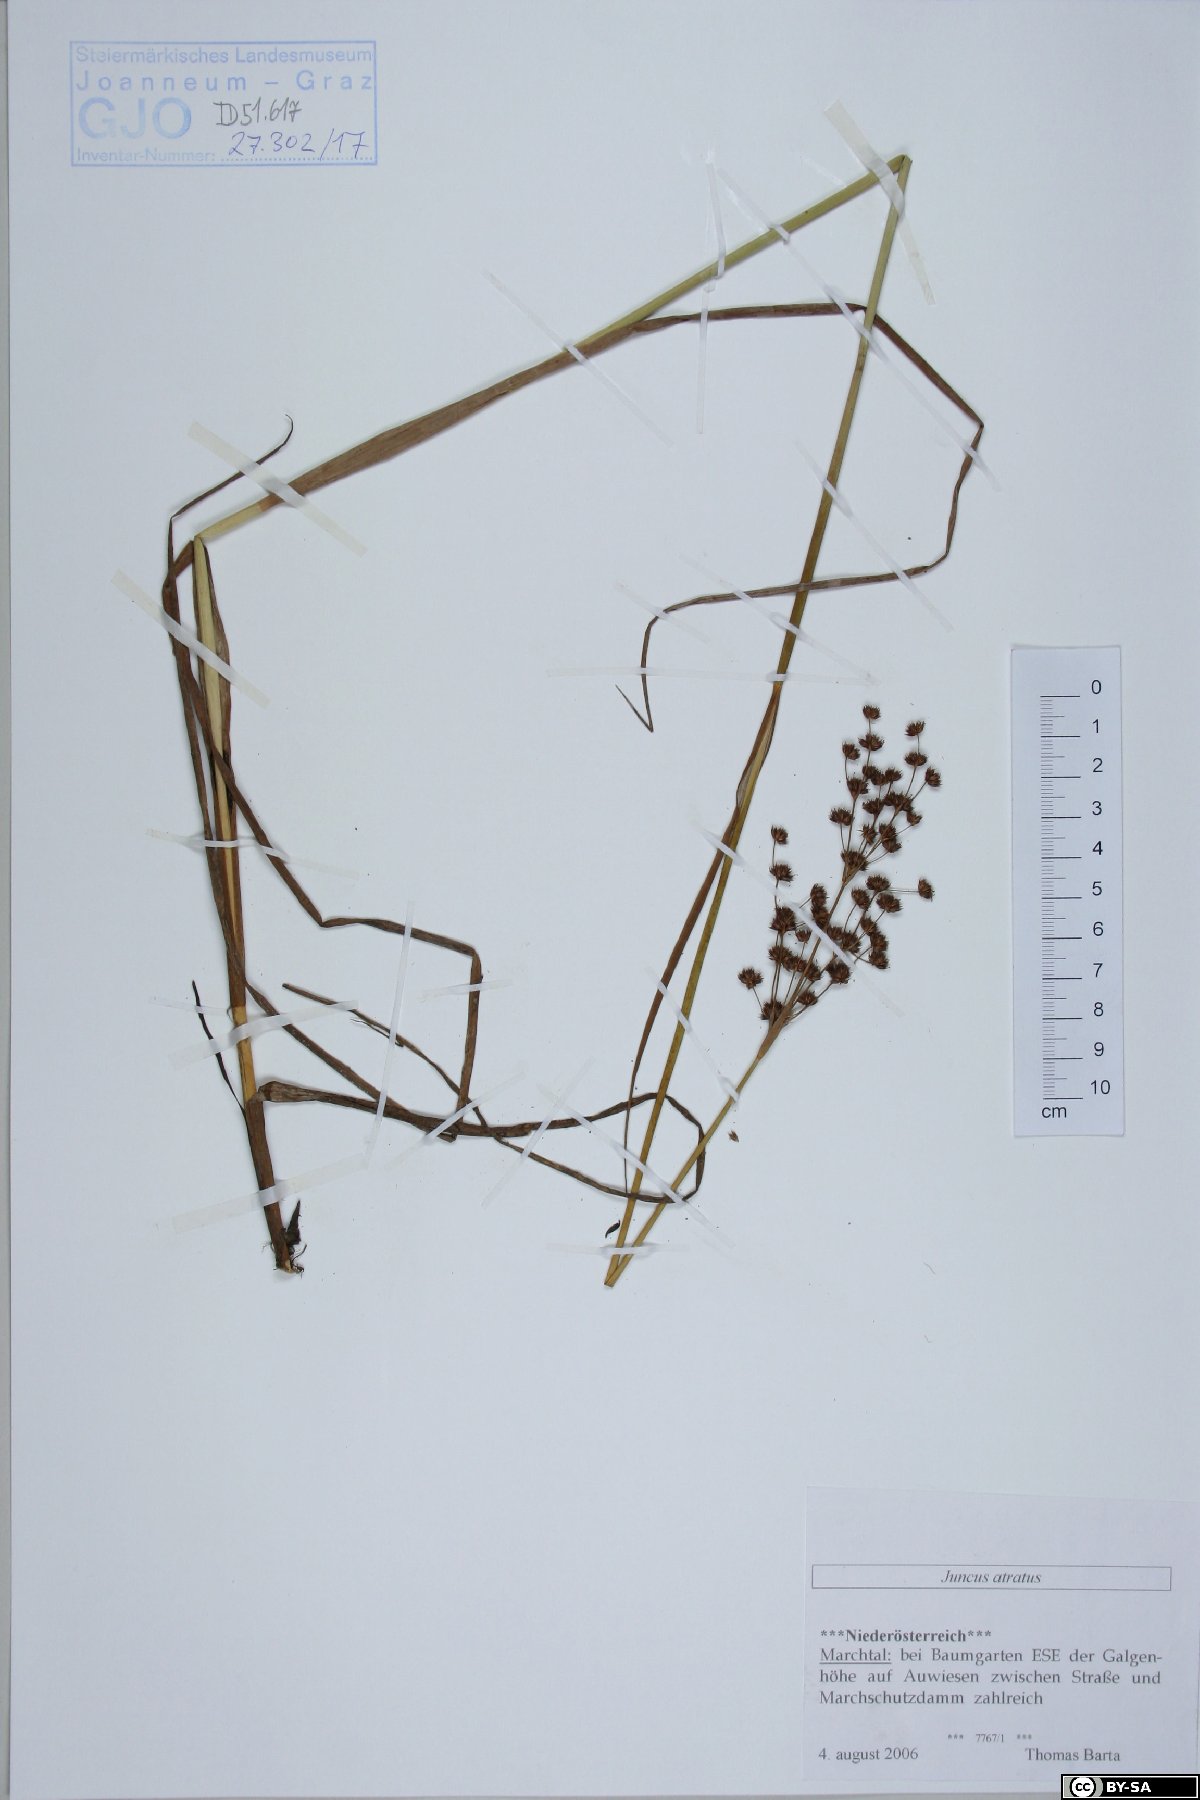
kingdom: Plantae
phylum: Tracheophyta
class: Liliopsida
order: Poales
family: Juncaceae
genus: Juncus
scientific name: Juncus atratus
